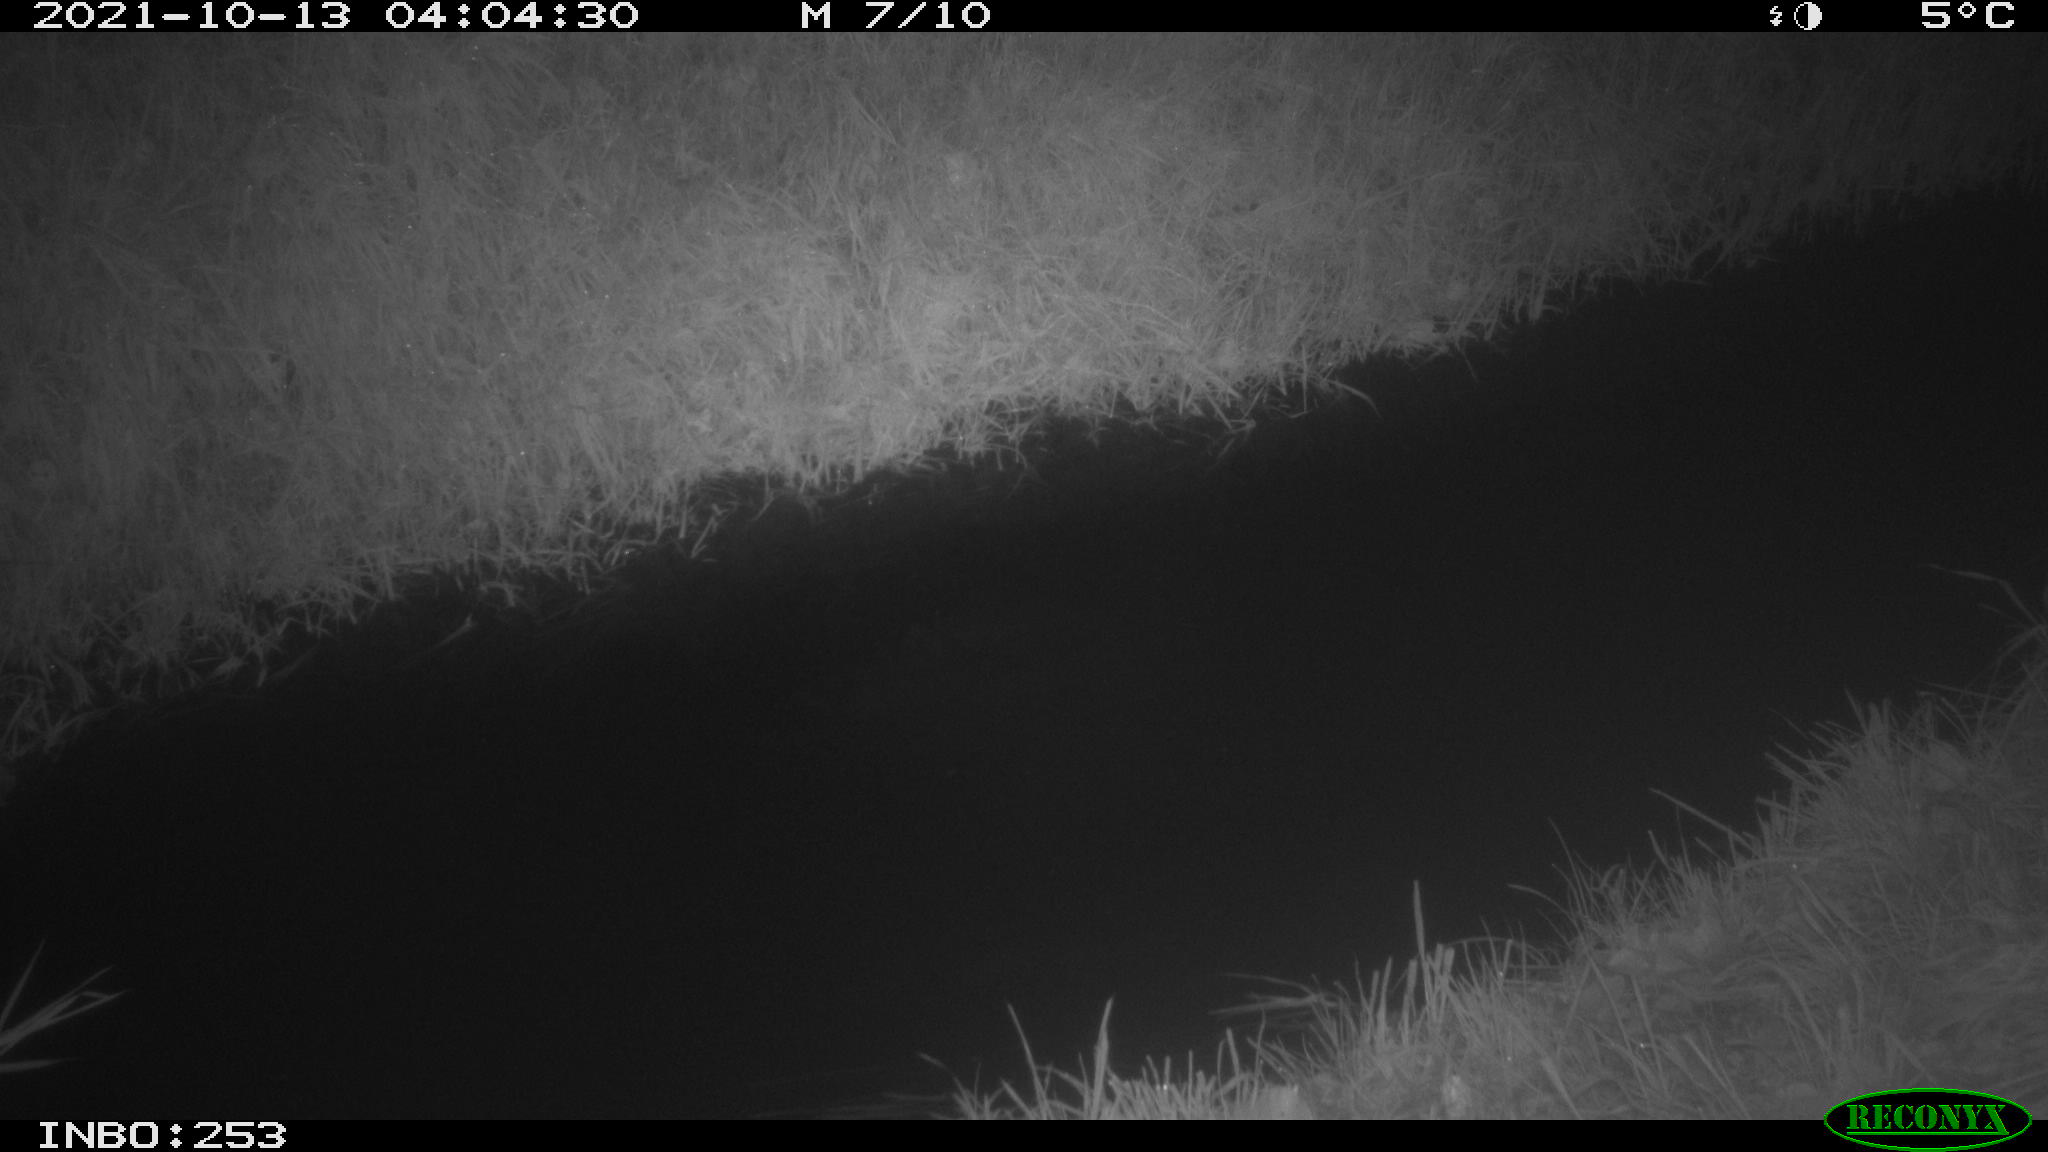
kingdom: Animalia
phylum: Chordata
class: Mammalia
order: Rodentia
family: Muridae
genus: Rattus
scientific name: Rattus norvegicus
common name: Brown rat
